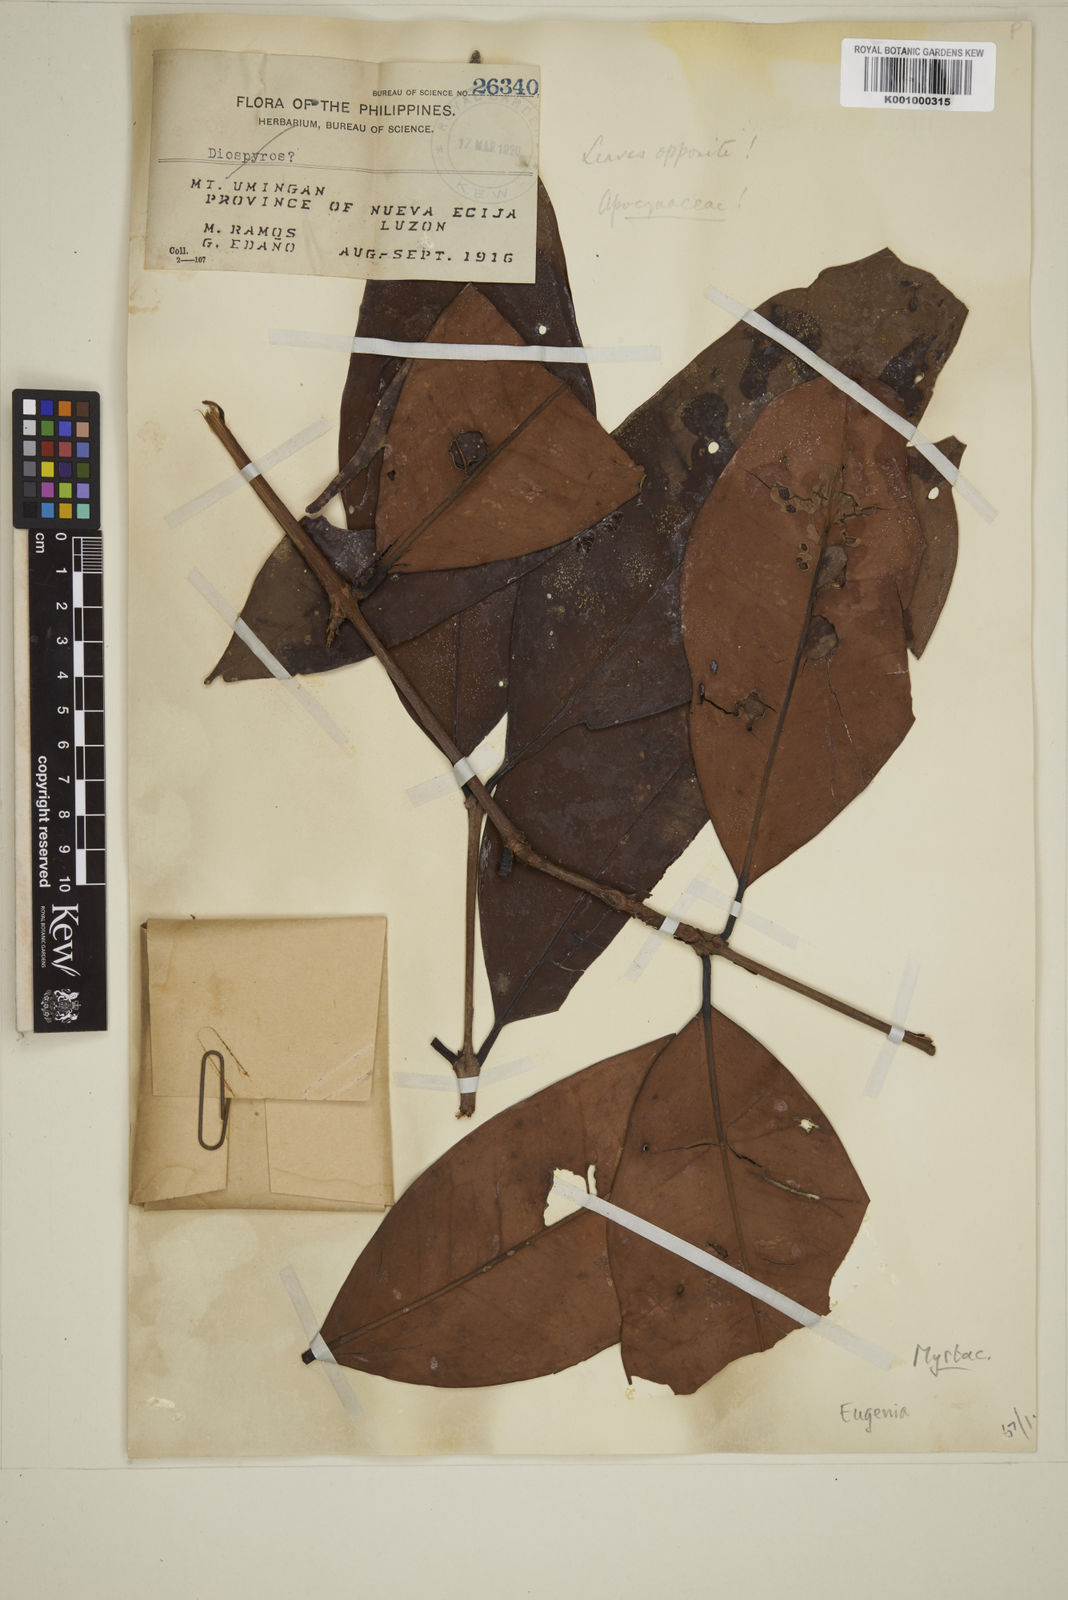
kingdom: Plantae
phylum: Tracheophyta
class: Magnoliopsida
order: Myrtales
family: Myrtaceae
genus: Eugenia
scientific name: Eugenia
